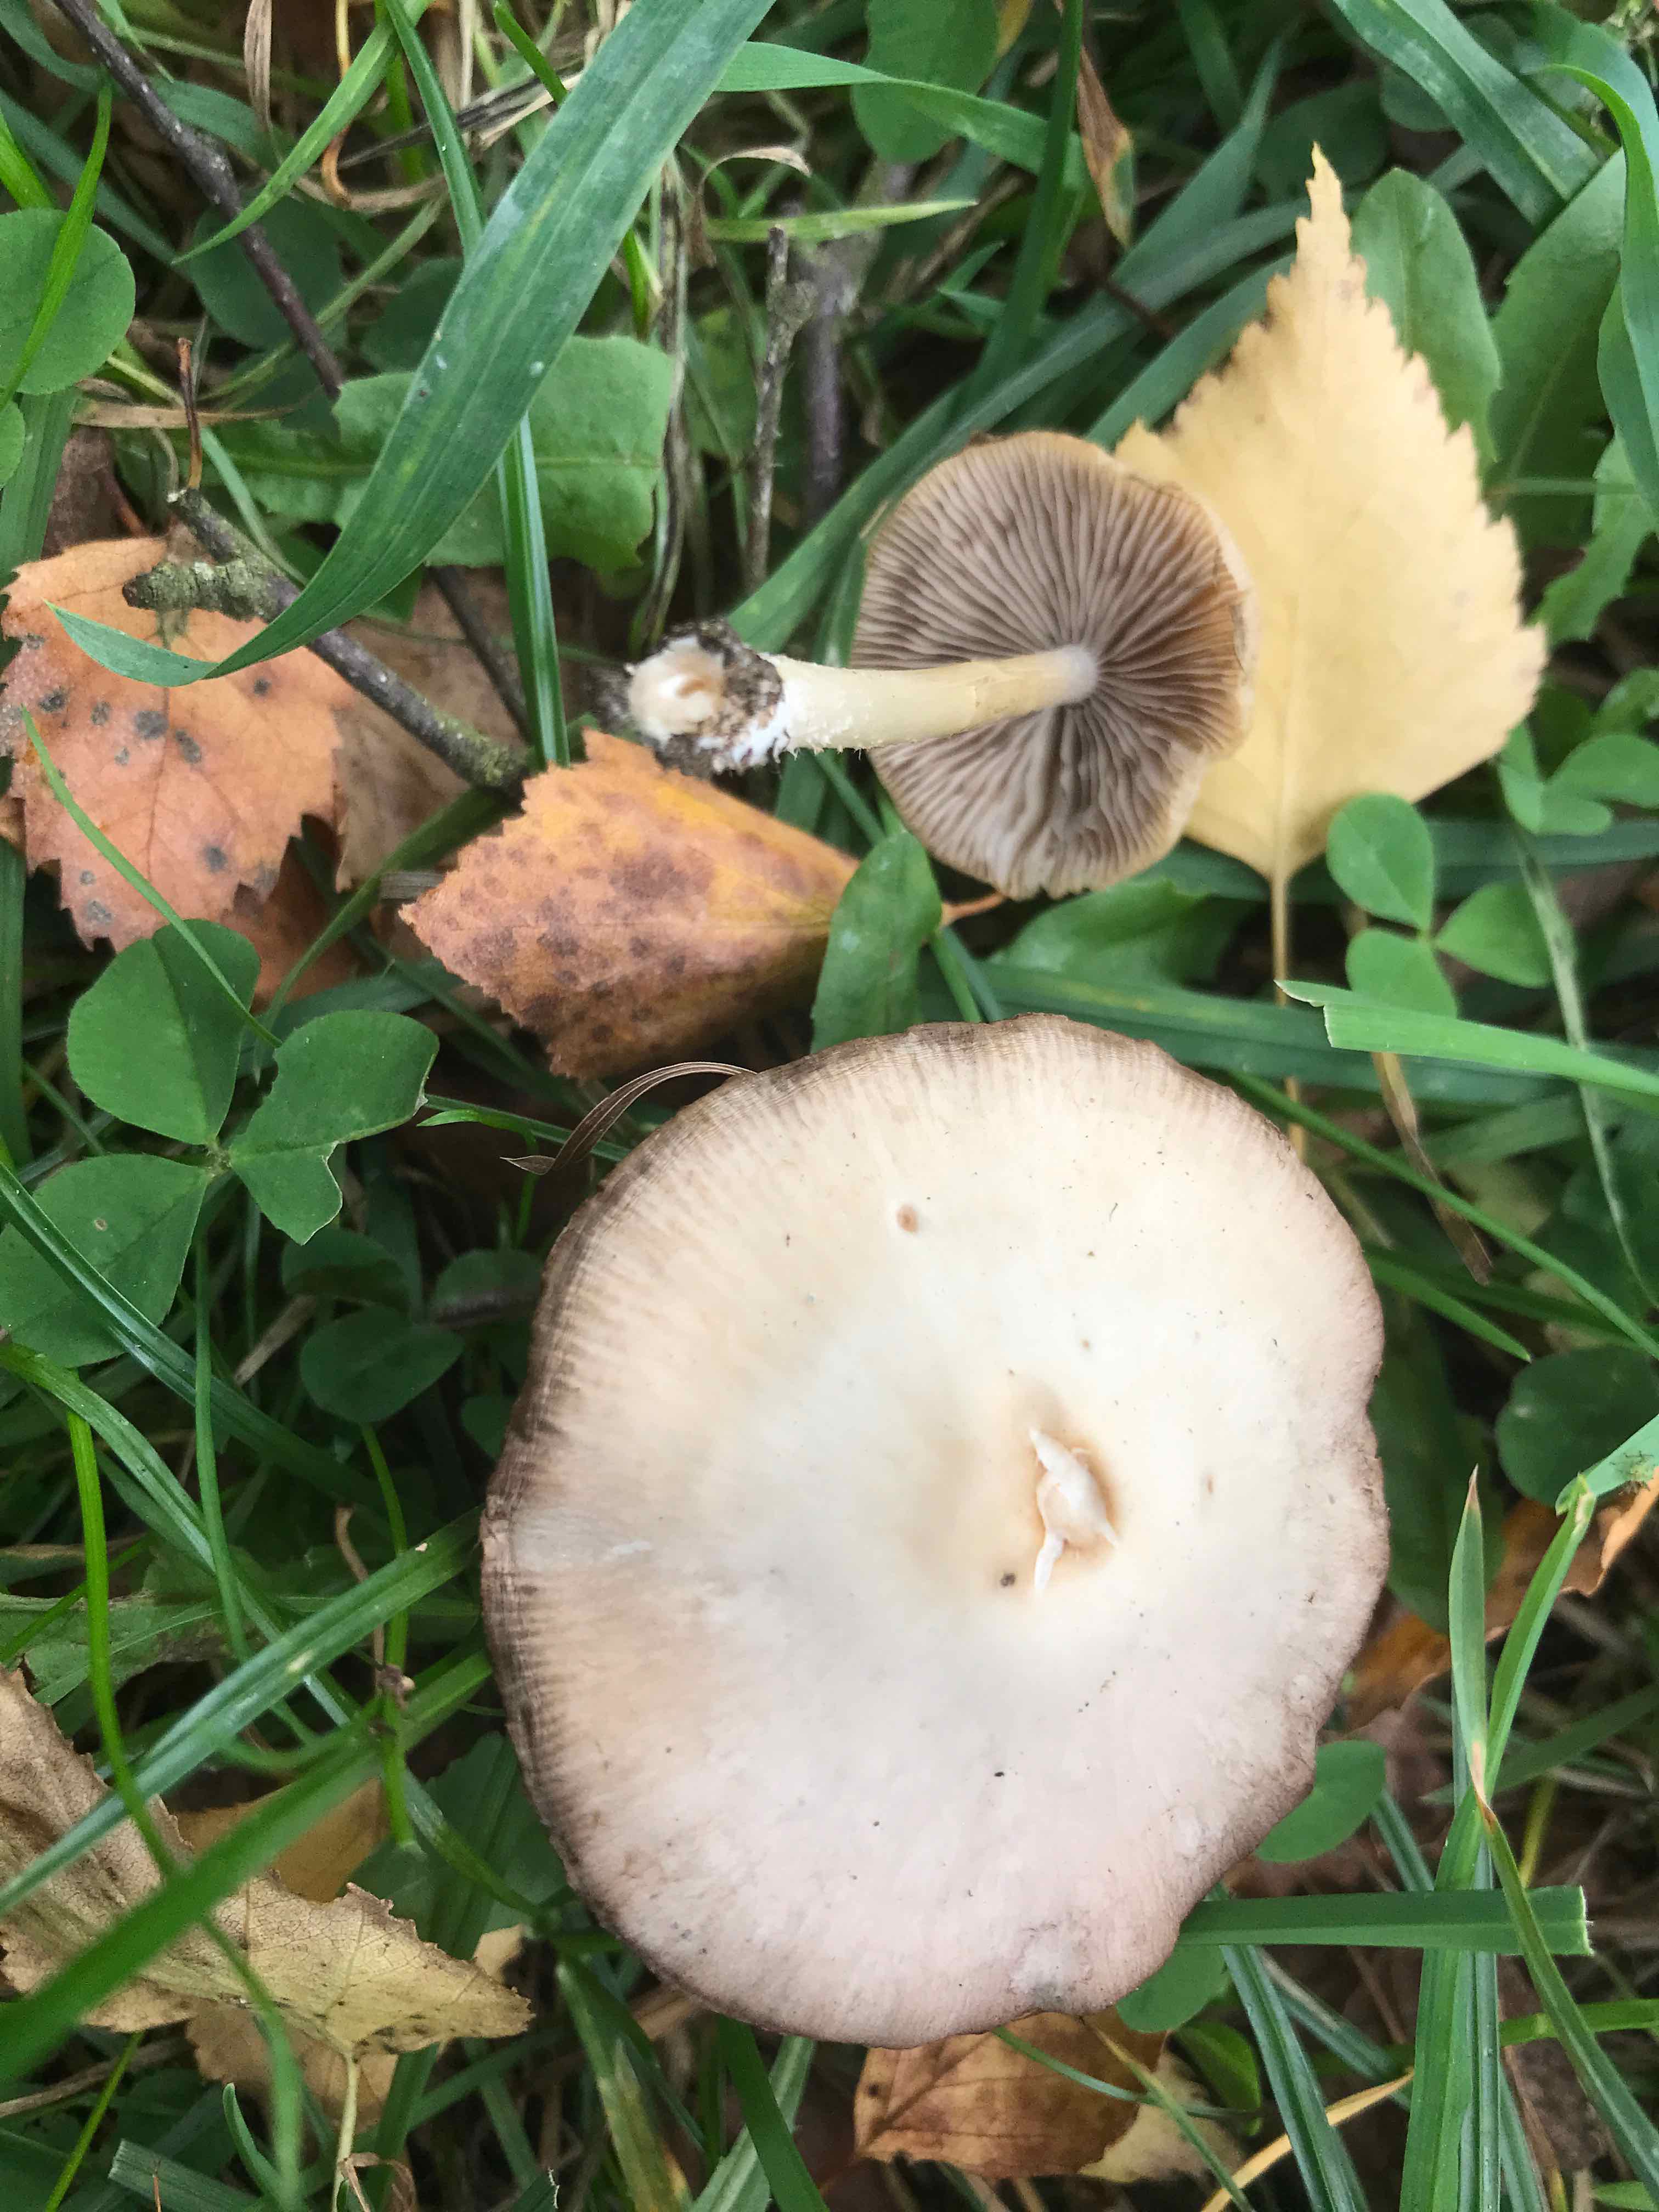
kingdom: Fungi
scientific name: Fungi
